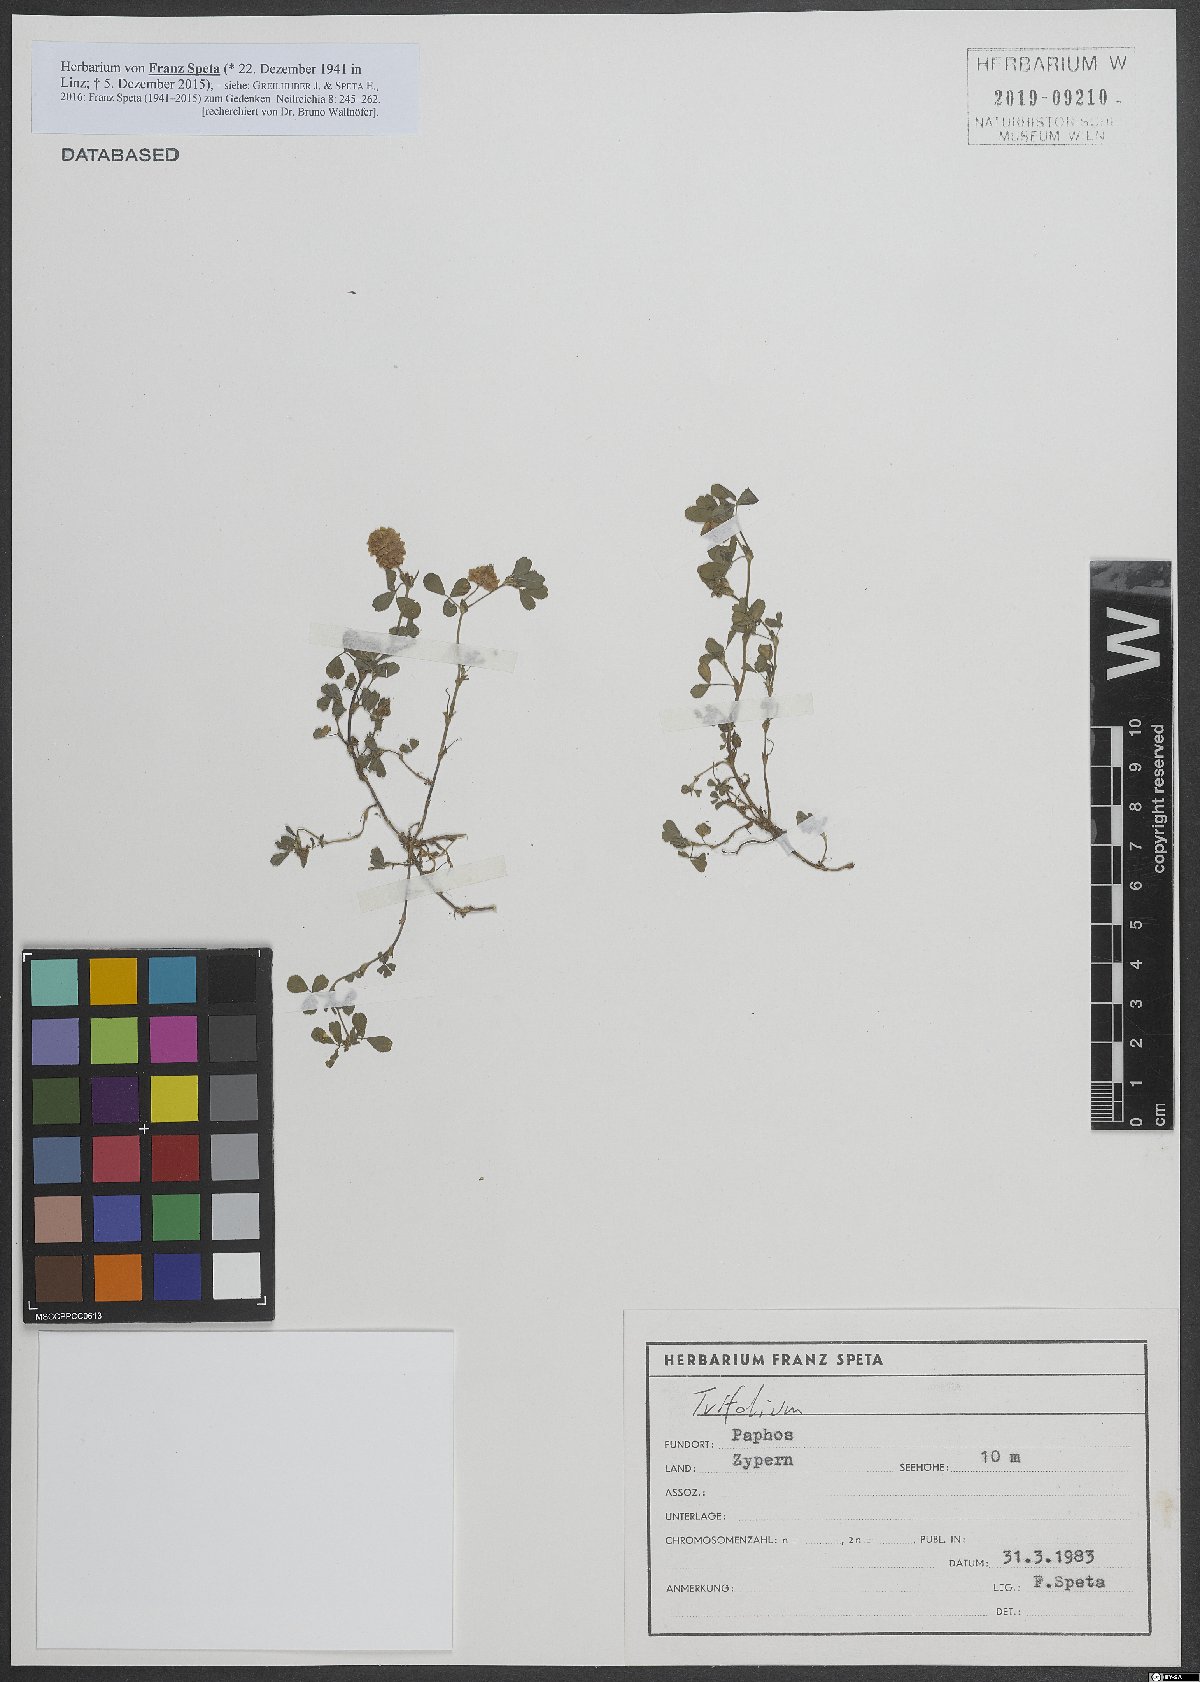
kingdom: Plantae
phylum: Tracheophyta
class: Magnoliopsida
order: Fabales
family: Fabaceae
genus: Trifolium
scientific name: Trifolium campestre
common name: Field clover
